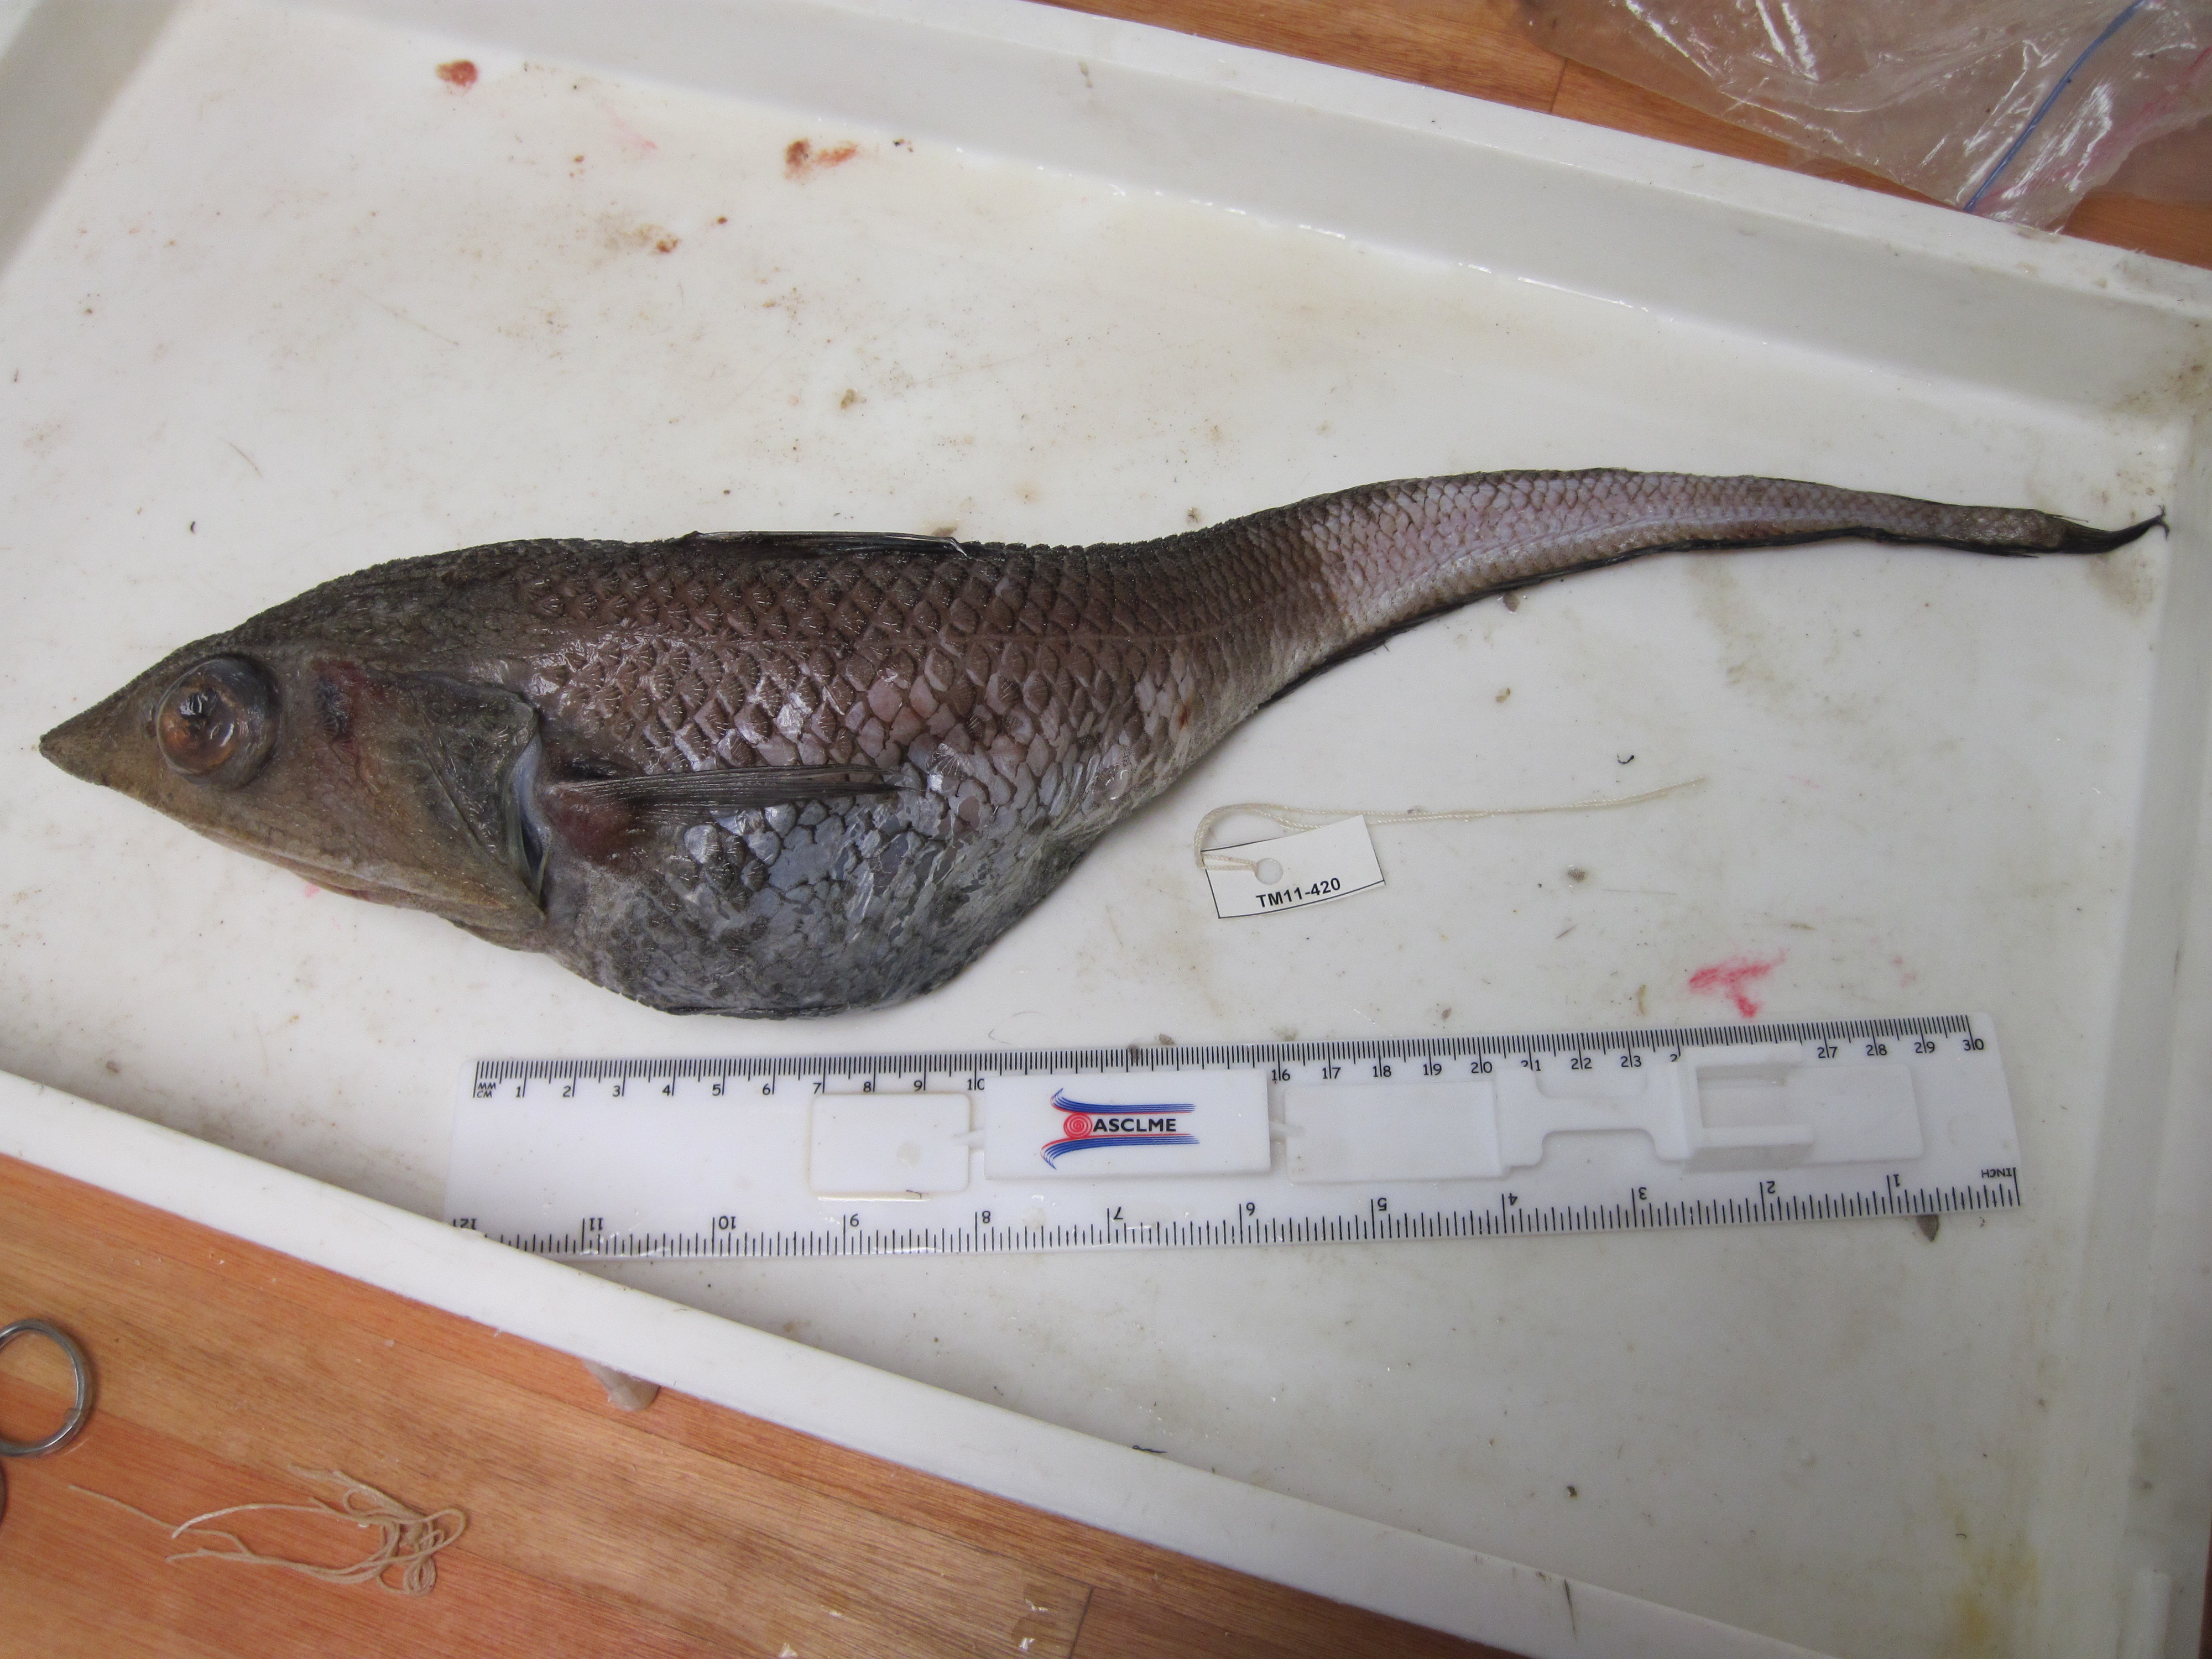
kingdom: Animalia
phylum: Chordata
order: Gadiformes
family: Macrouridae
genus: Coelorinchus
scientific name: Coelorinchus trunovi
